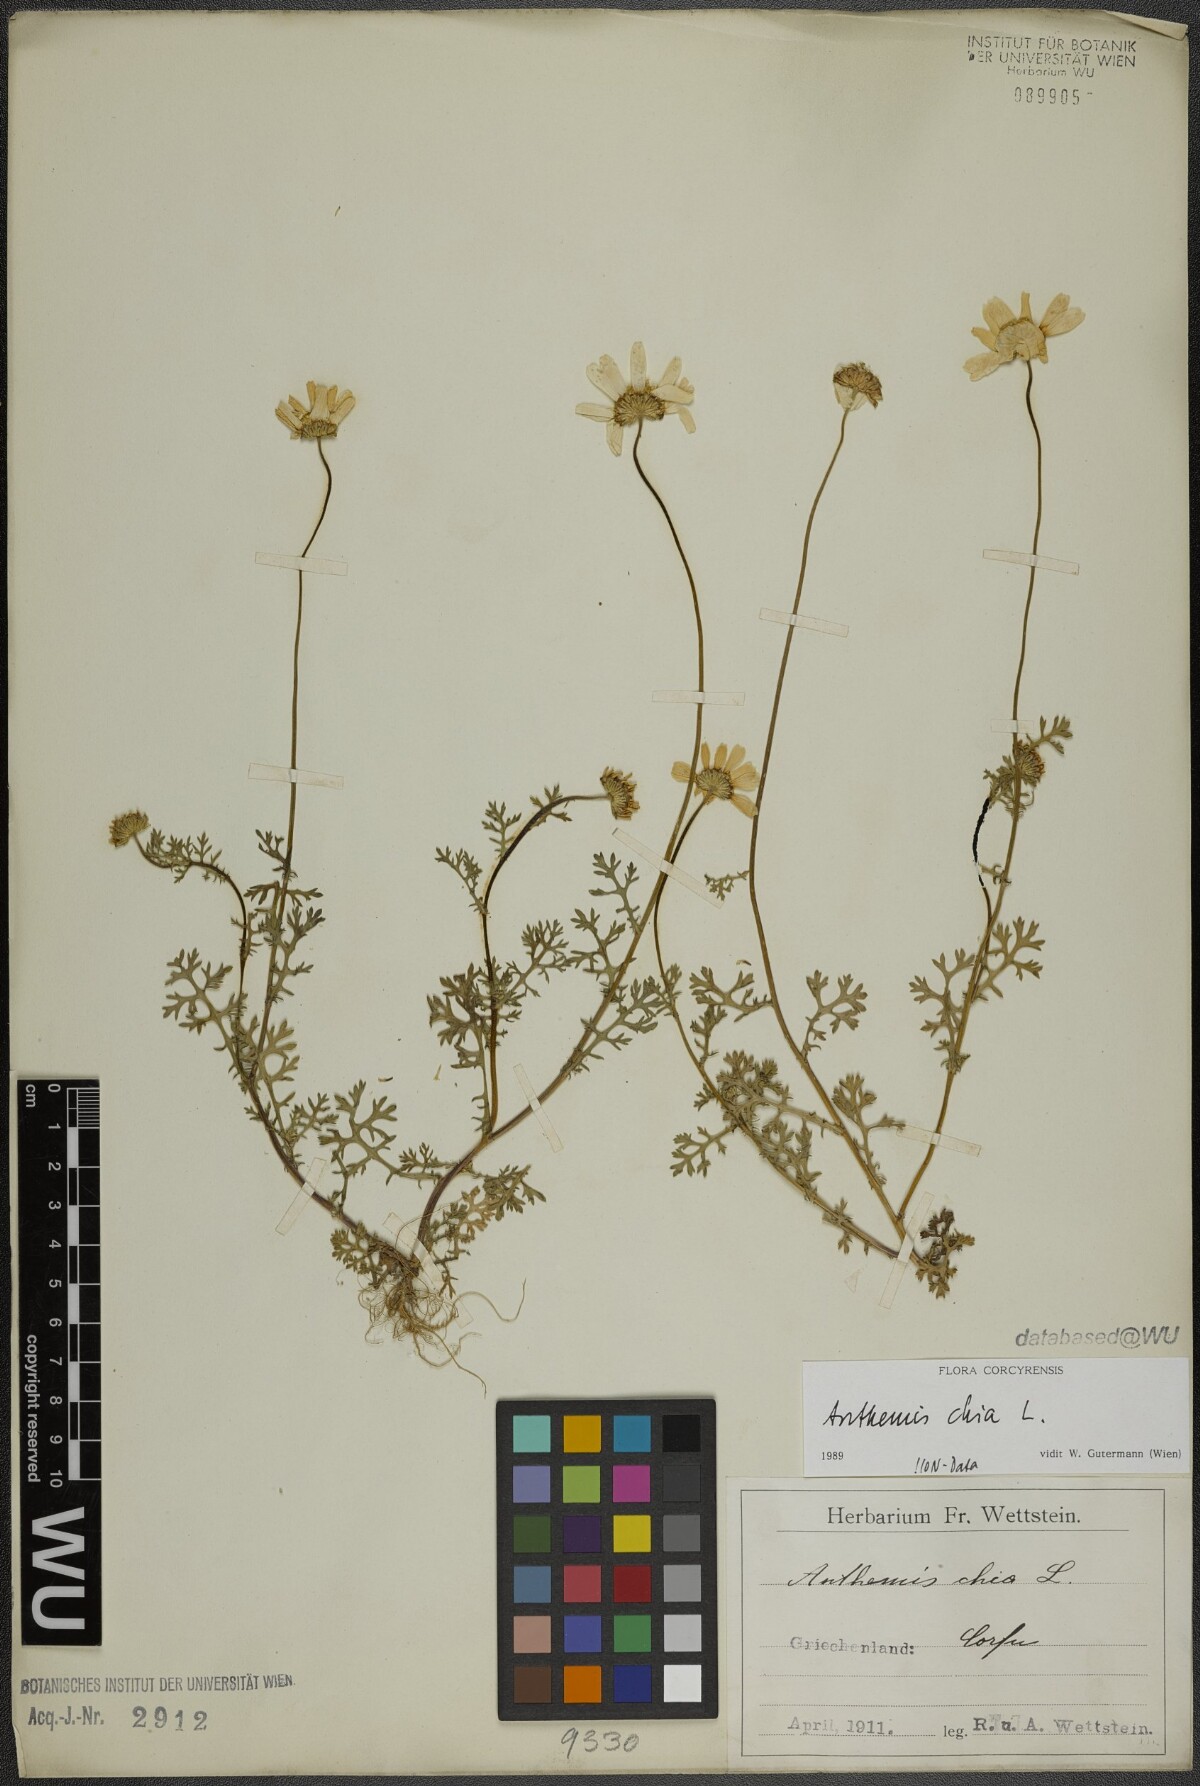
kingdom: Plantae
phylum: Tracheophyta
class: Magnoliopsida
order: Asterales
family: Asteraceae
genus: Anthemis
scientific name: Anthemis chia
